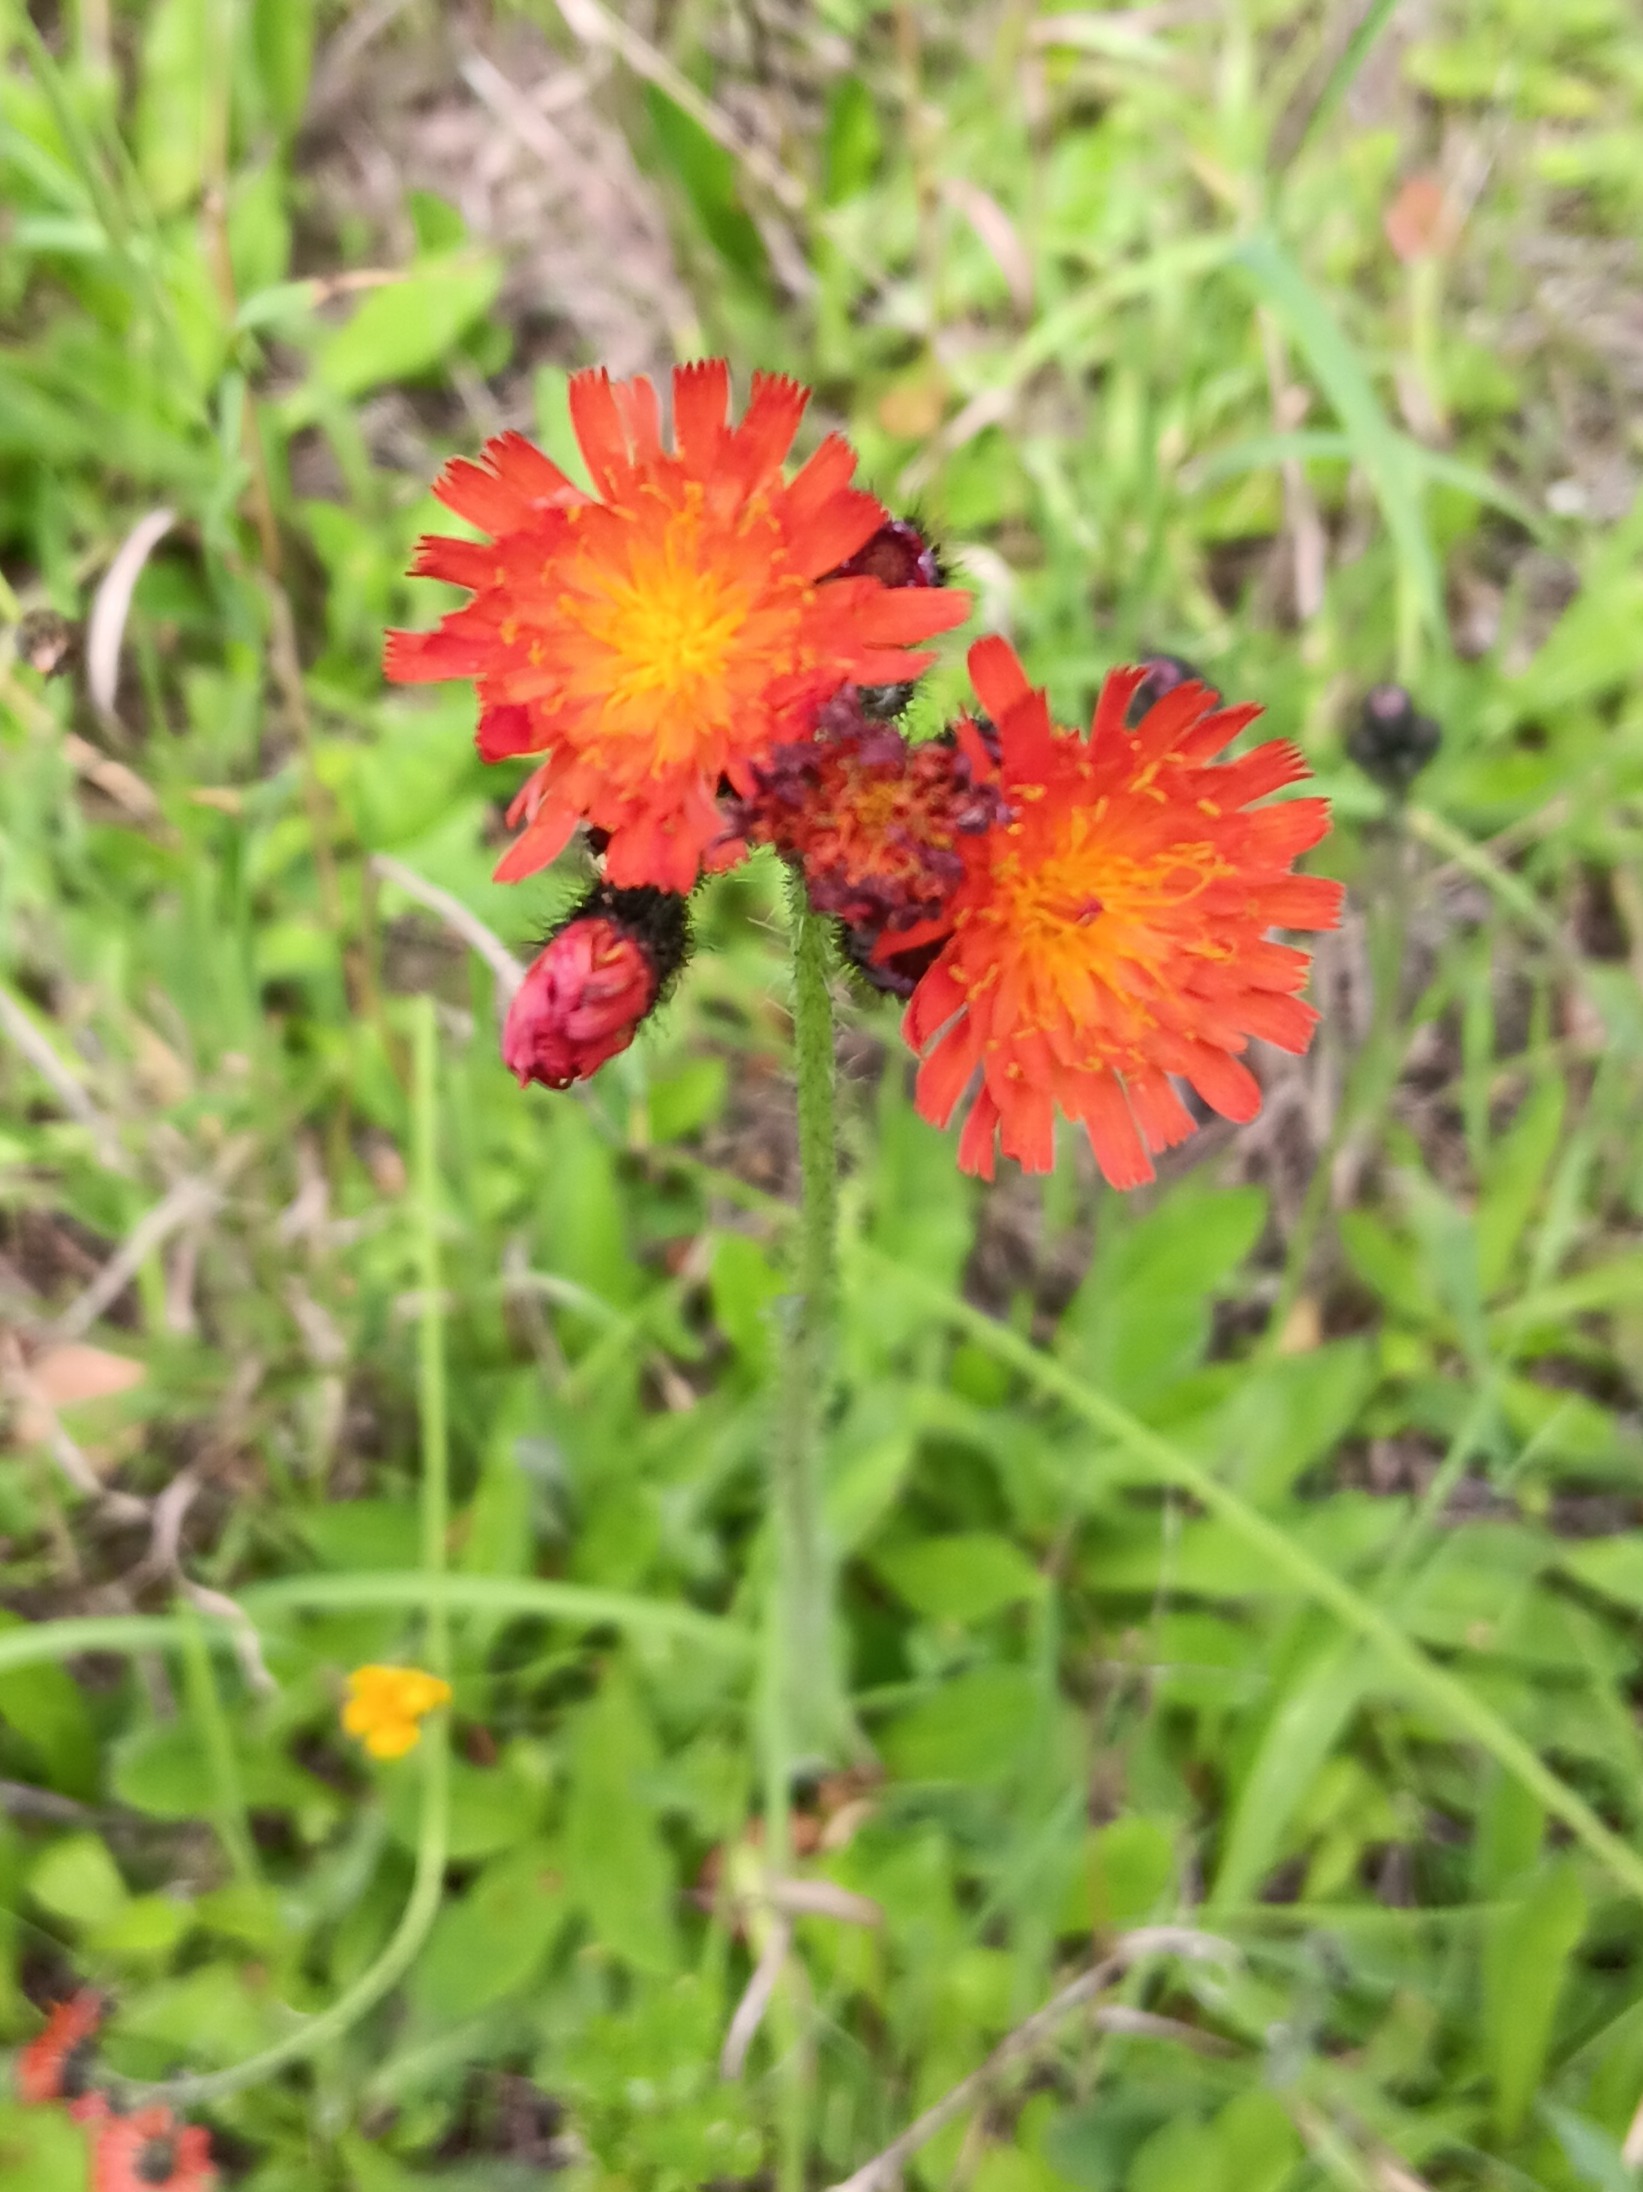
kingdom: Plantae
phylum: Tracheophyta
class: Magnoliopsida
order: Asterales
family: Asteraceae
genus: Pilosella
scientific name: Pilosella aurantiaca
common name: Pomerans-høgeurt
